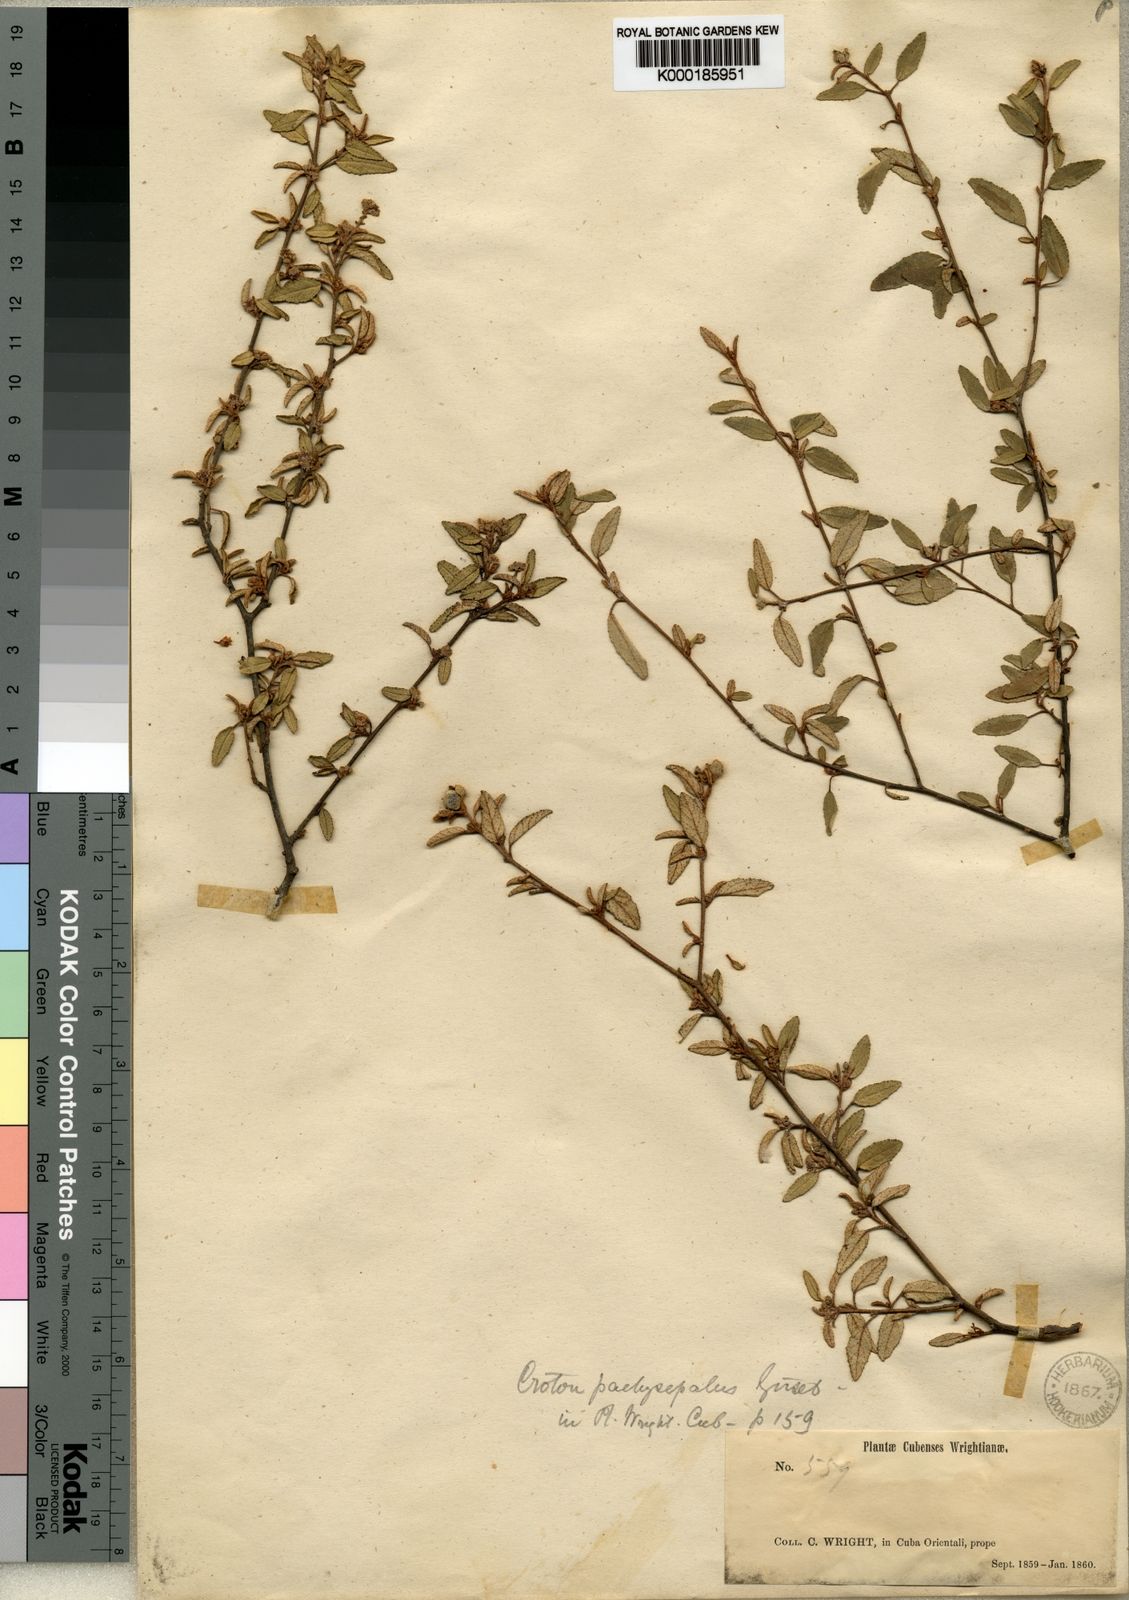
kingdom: Plantae
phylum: Tracheophyta
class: Magnoliopsida
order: Malpighiales
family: Euphorbiaceae
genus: Croton
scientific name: Croton pachysepalus
